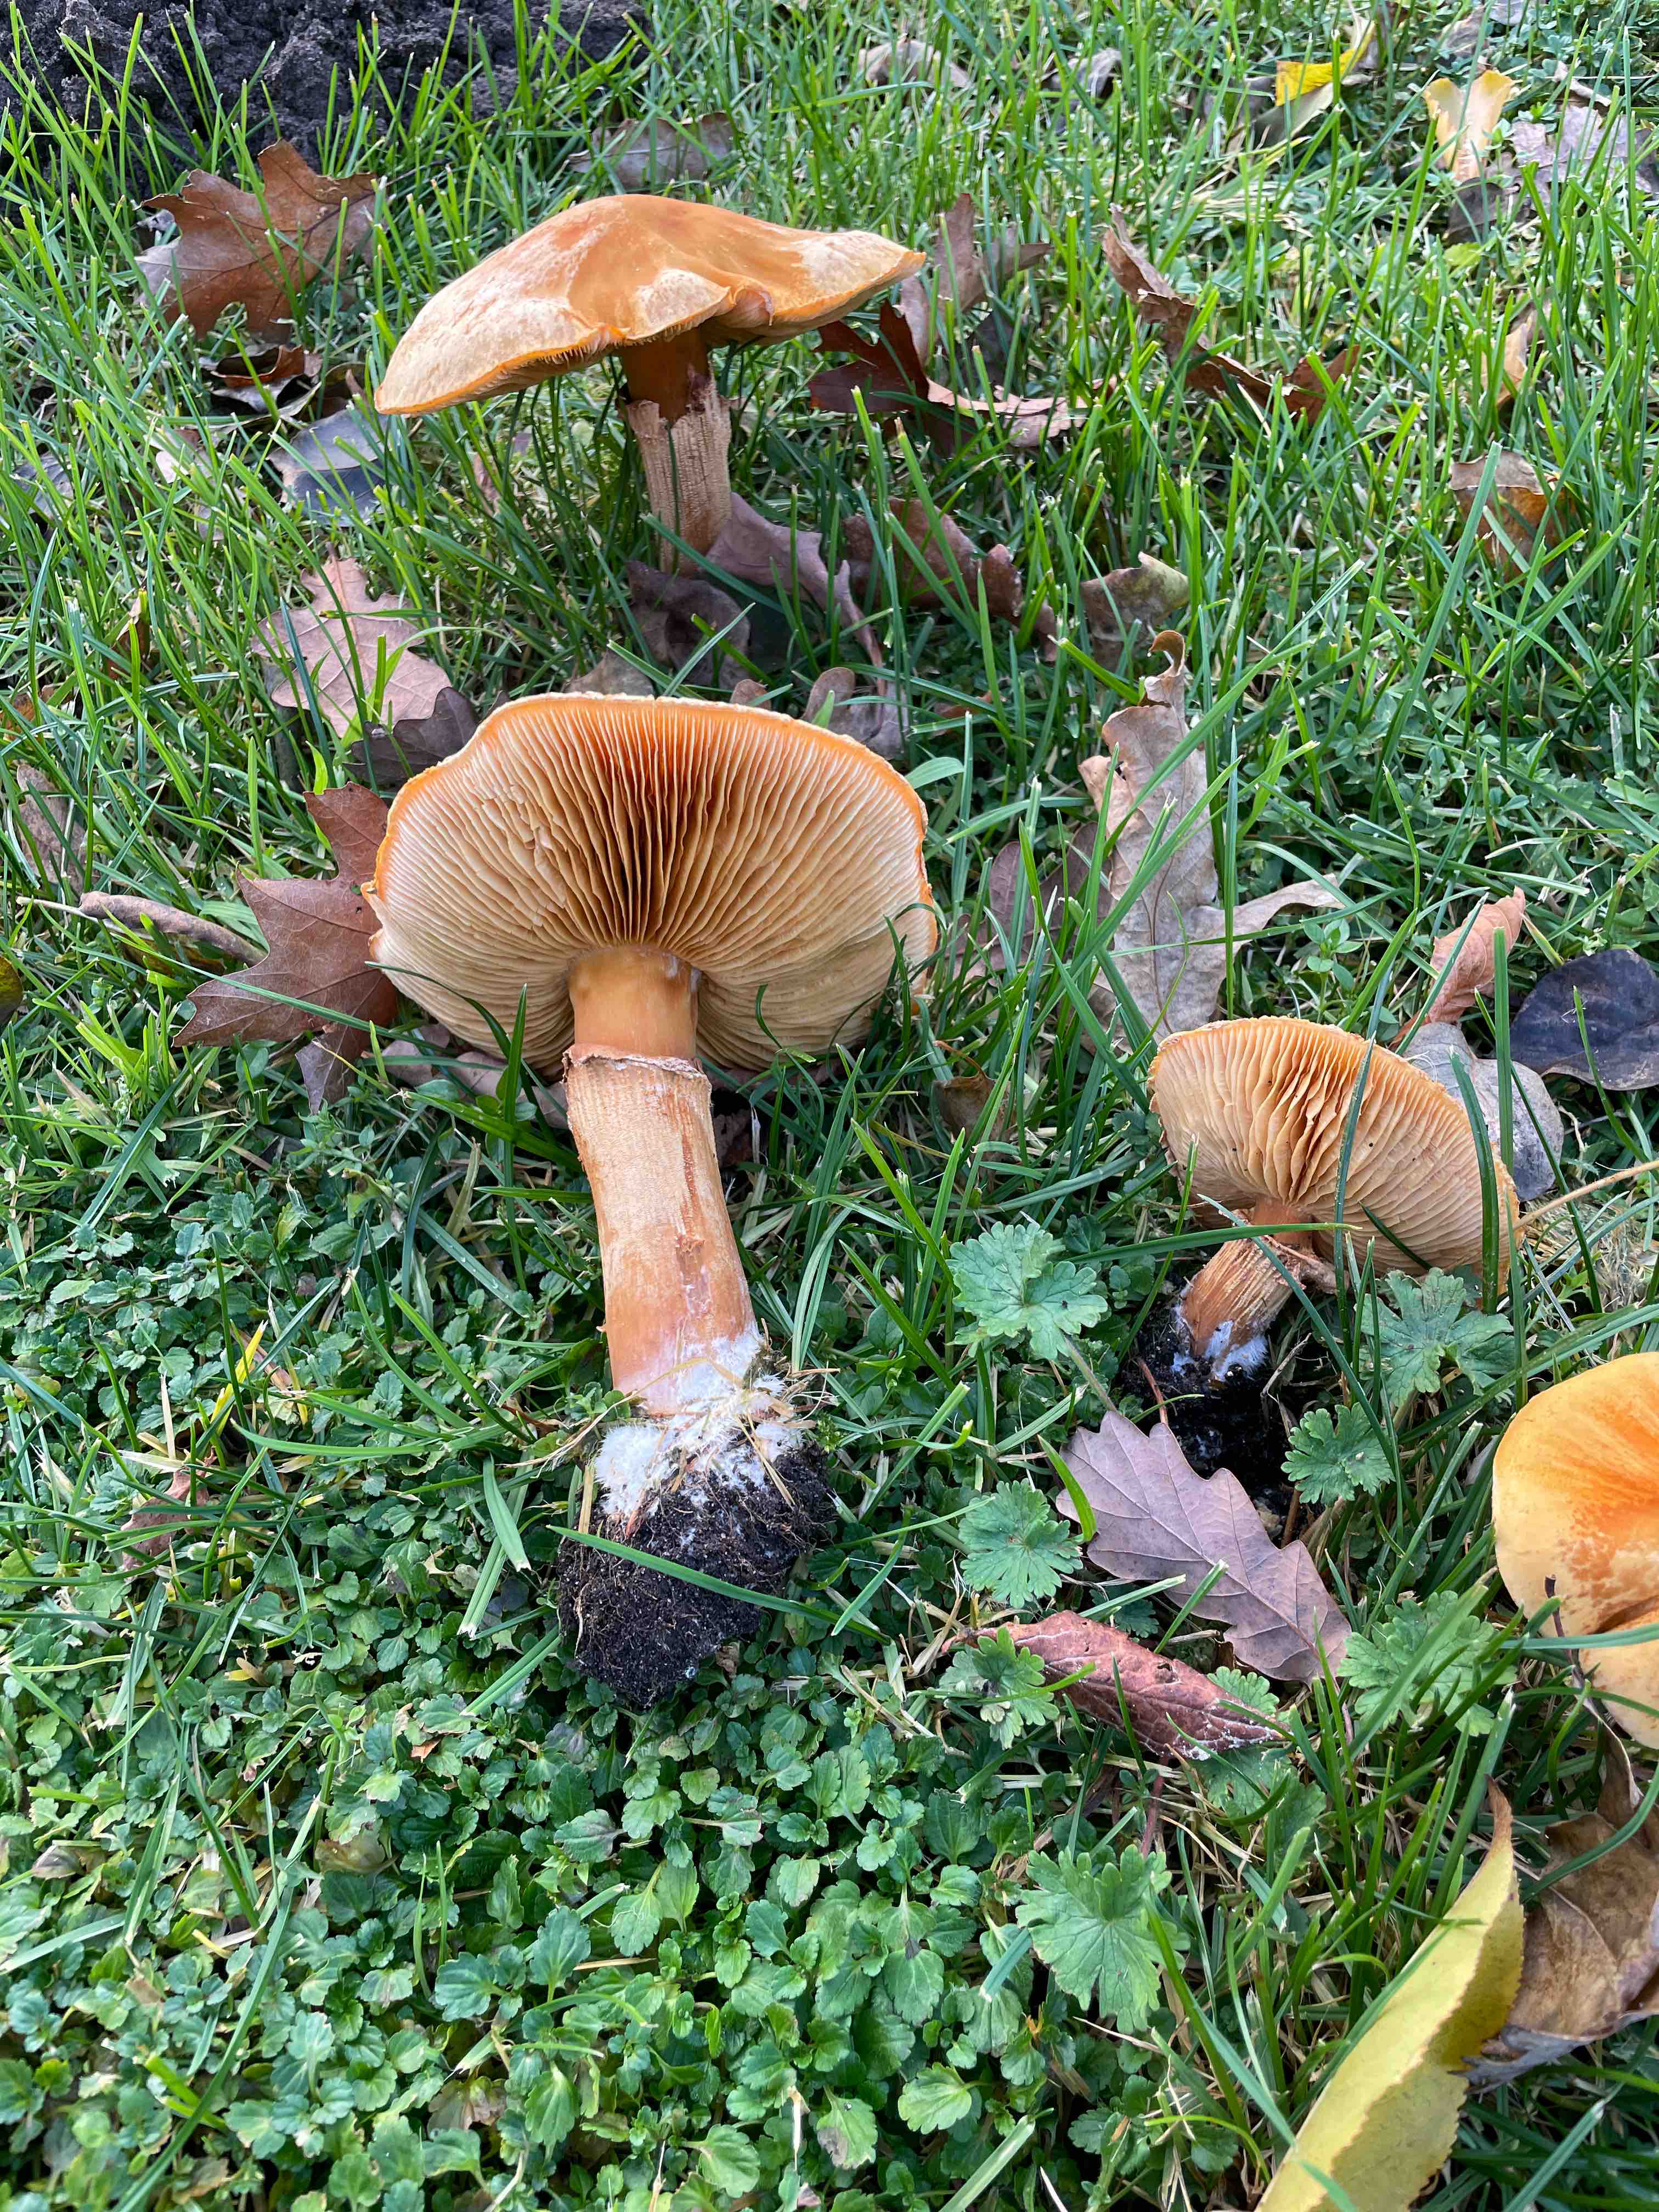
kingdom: Fungi
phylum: Basidiomycota
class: Agaricomycetes
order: Agaricales
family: Hymenogastraceae
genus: Gymnopilus
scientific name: Gymnopilus spectabilis
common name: fibret flammehat
